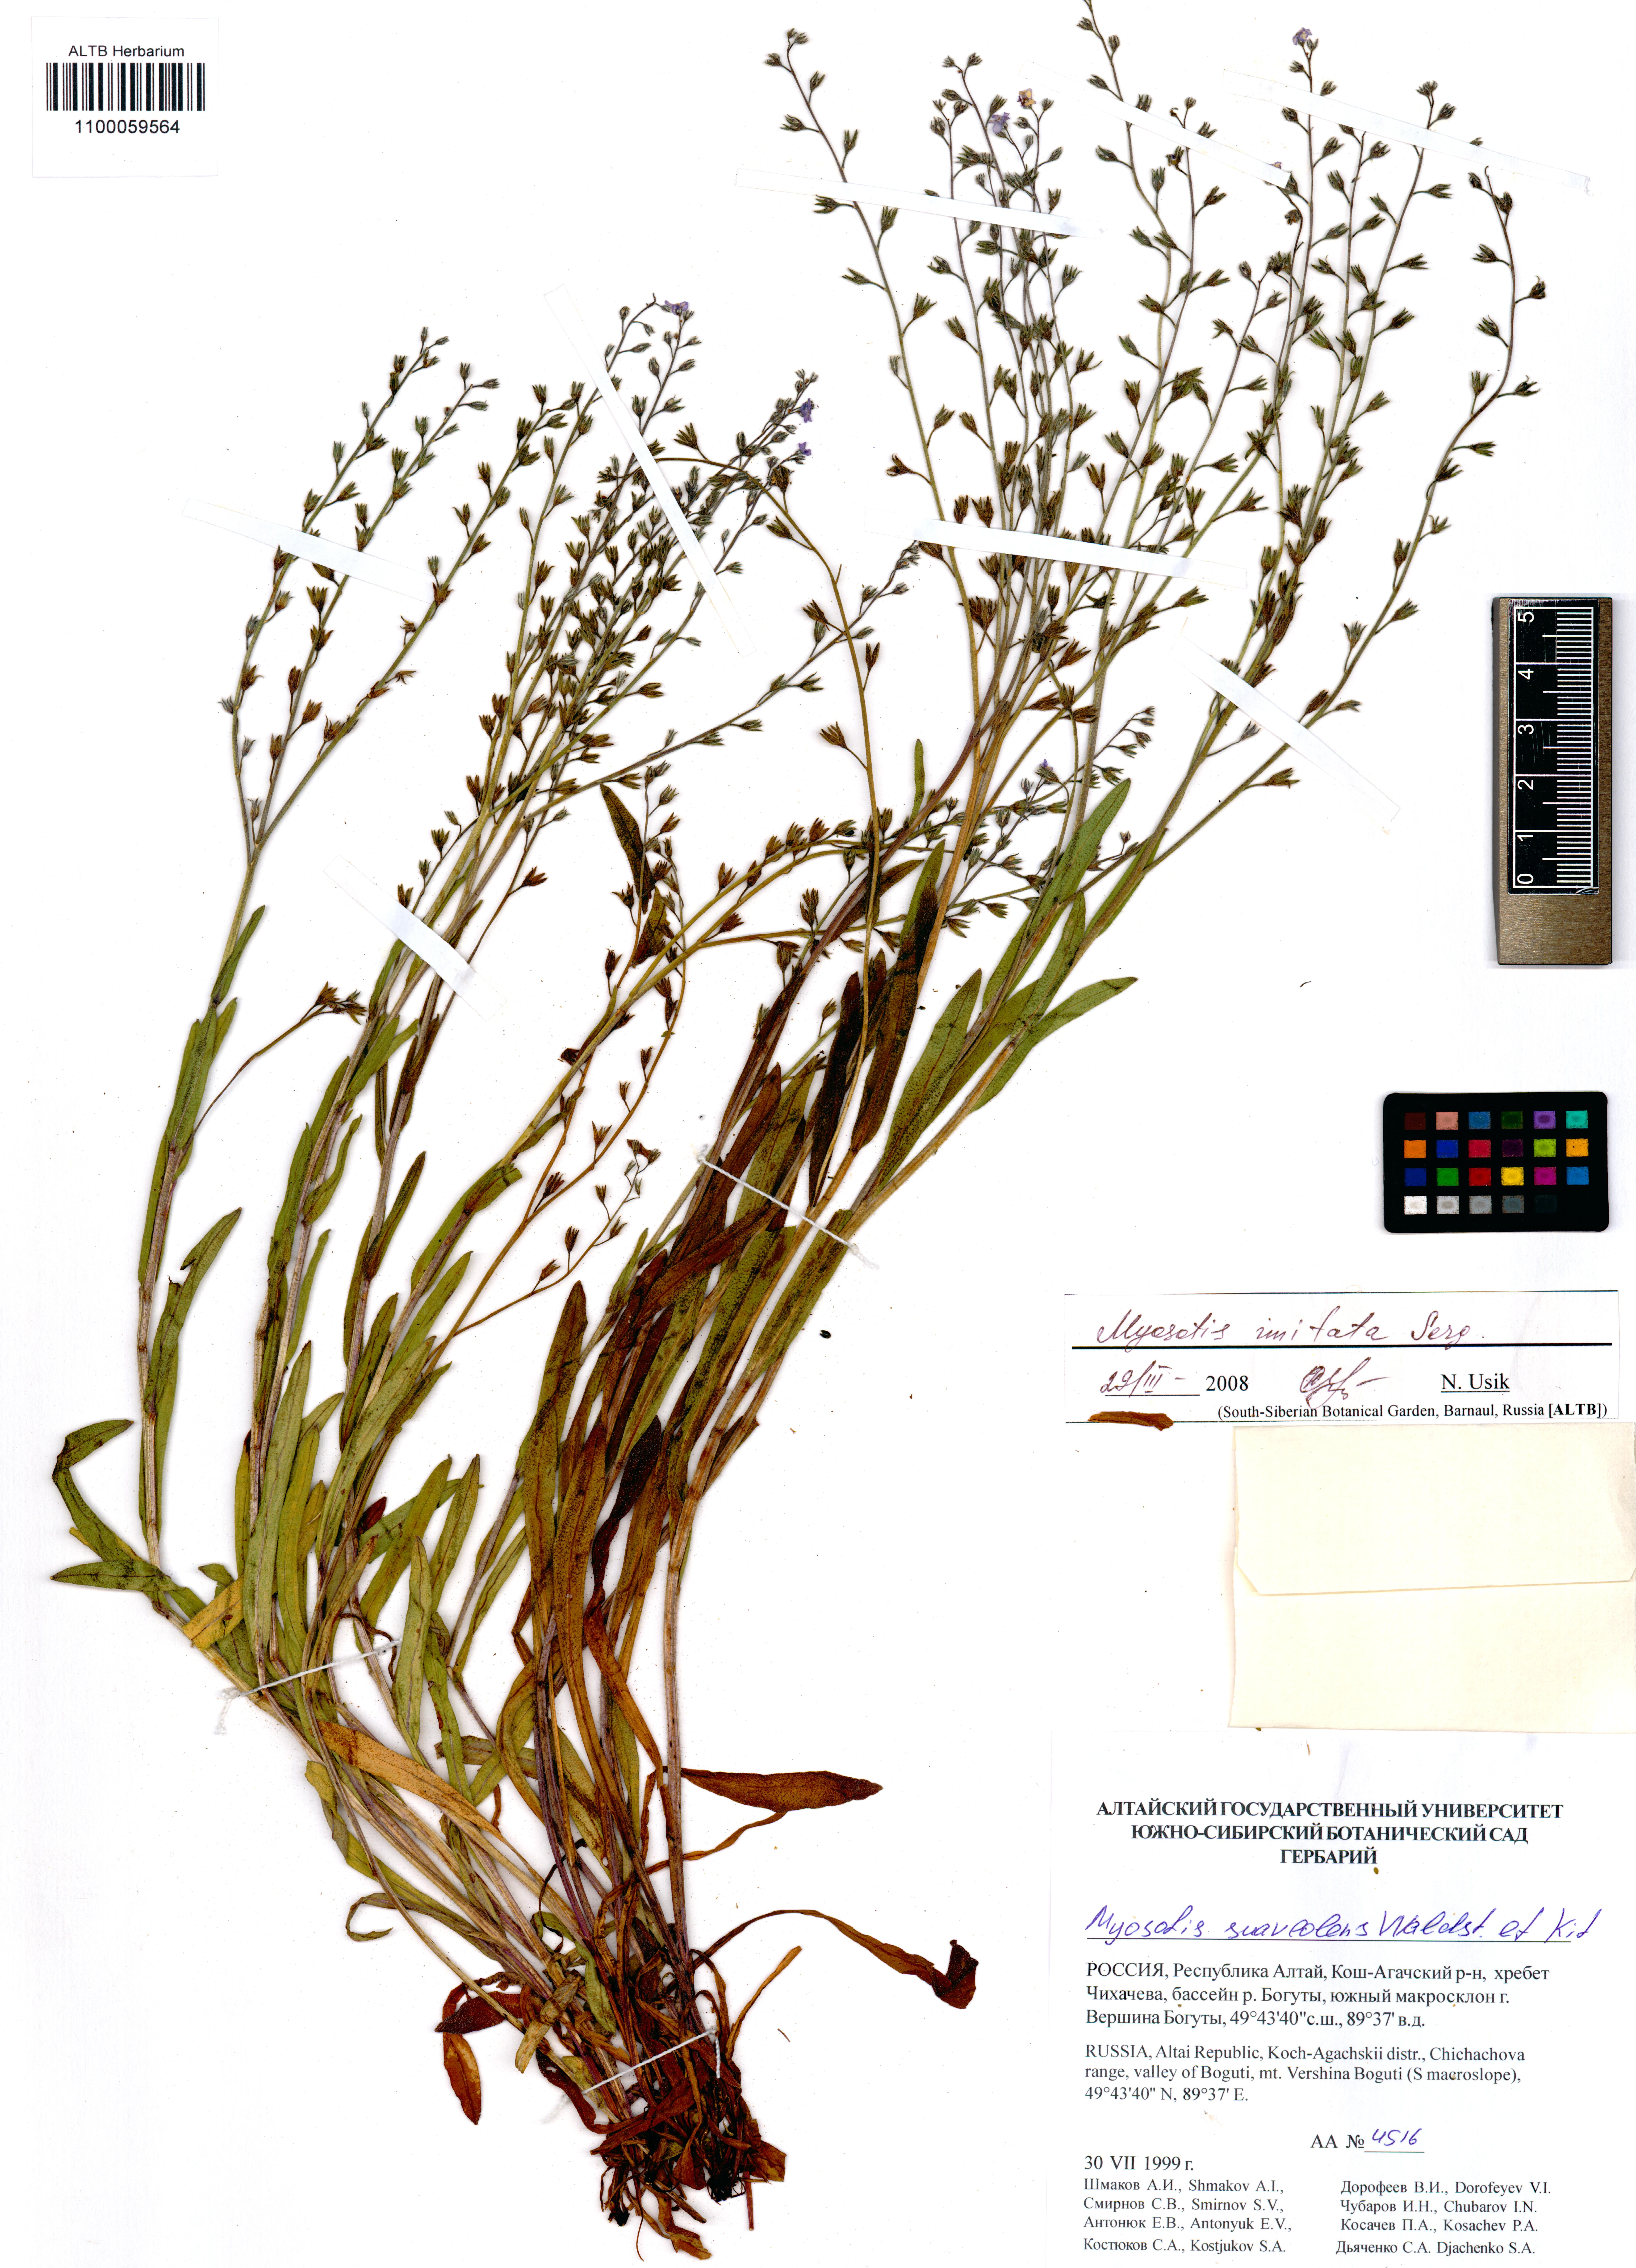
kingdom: Plantae
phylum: Tracheophyta
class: Magnoliopsida
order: Boraginales
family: Boraginaceae
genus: Myosotis
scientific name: Myosotis imitata
